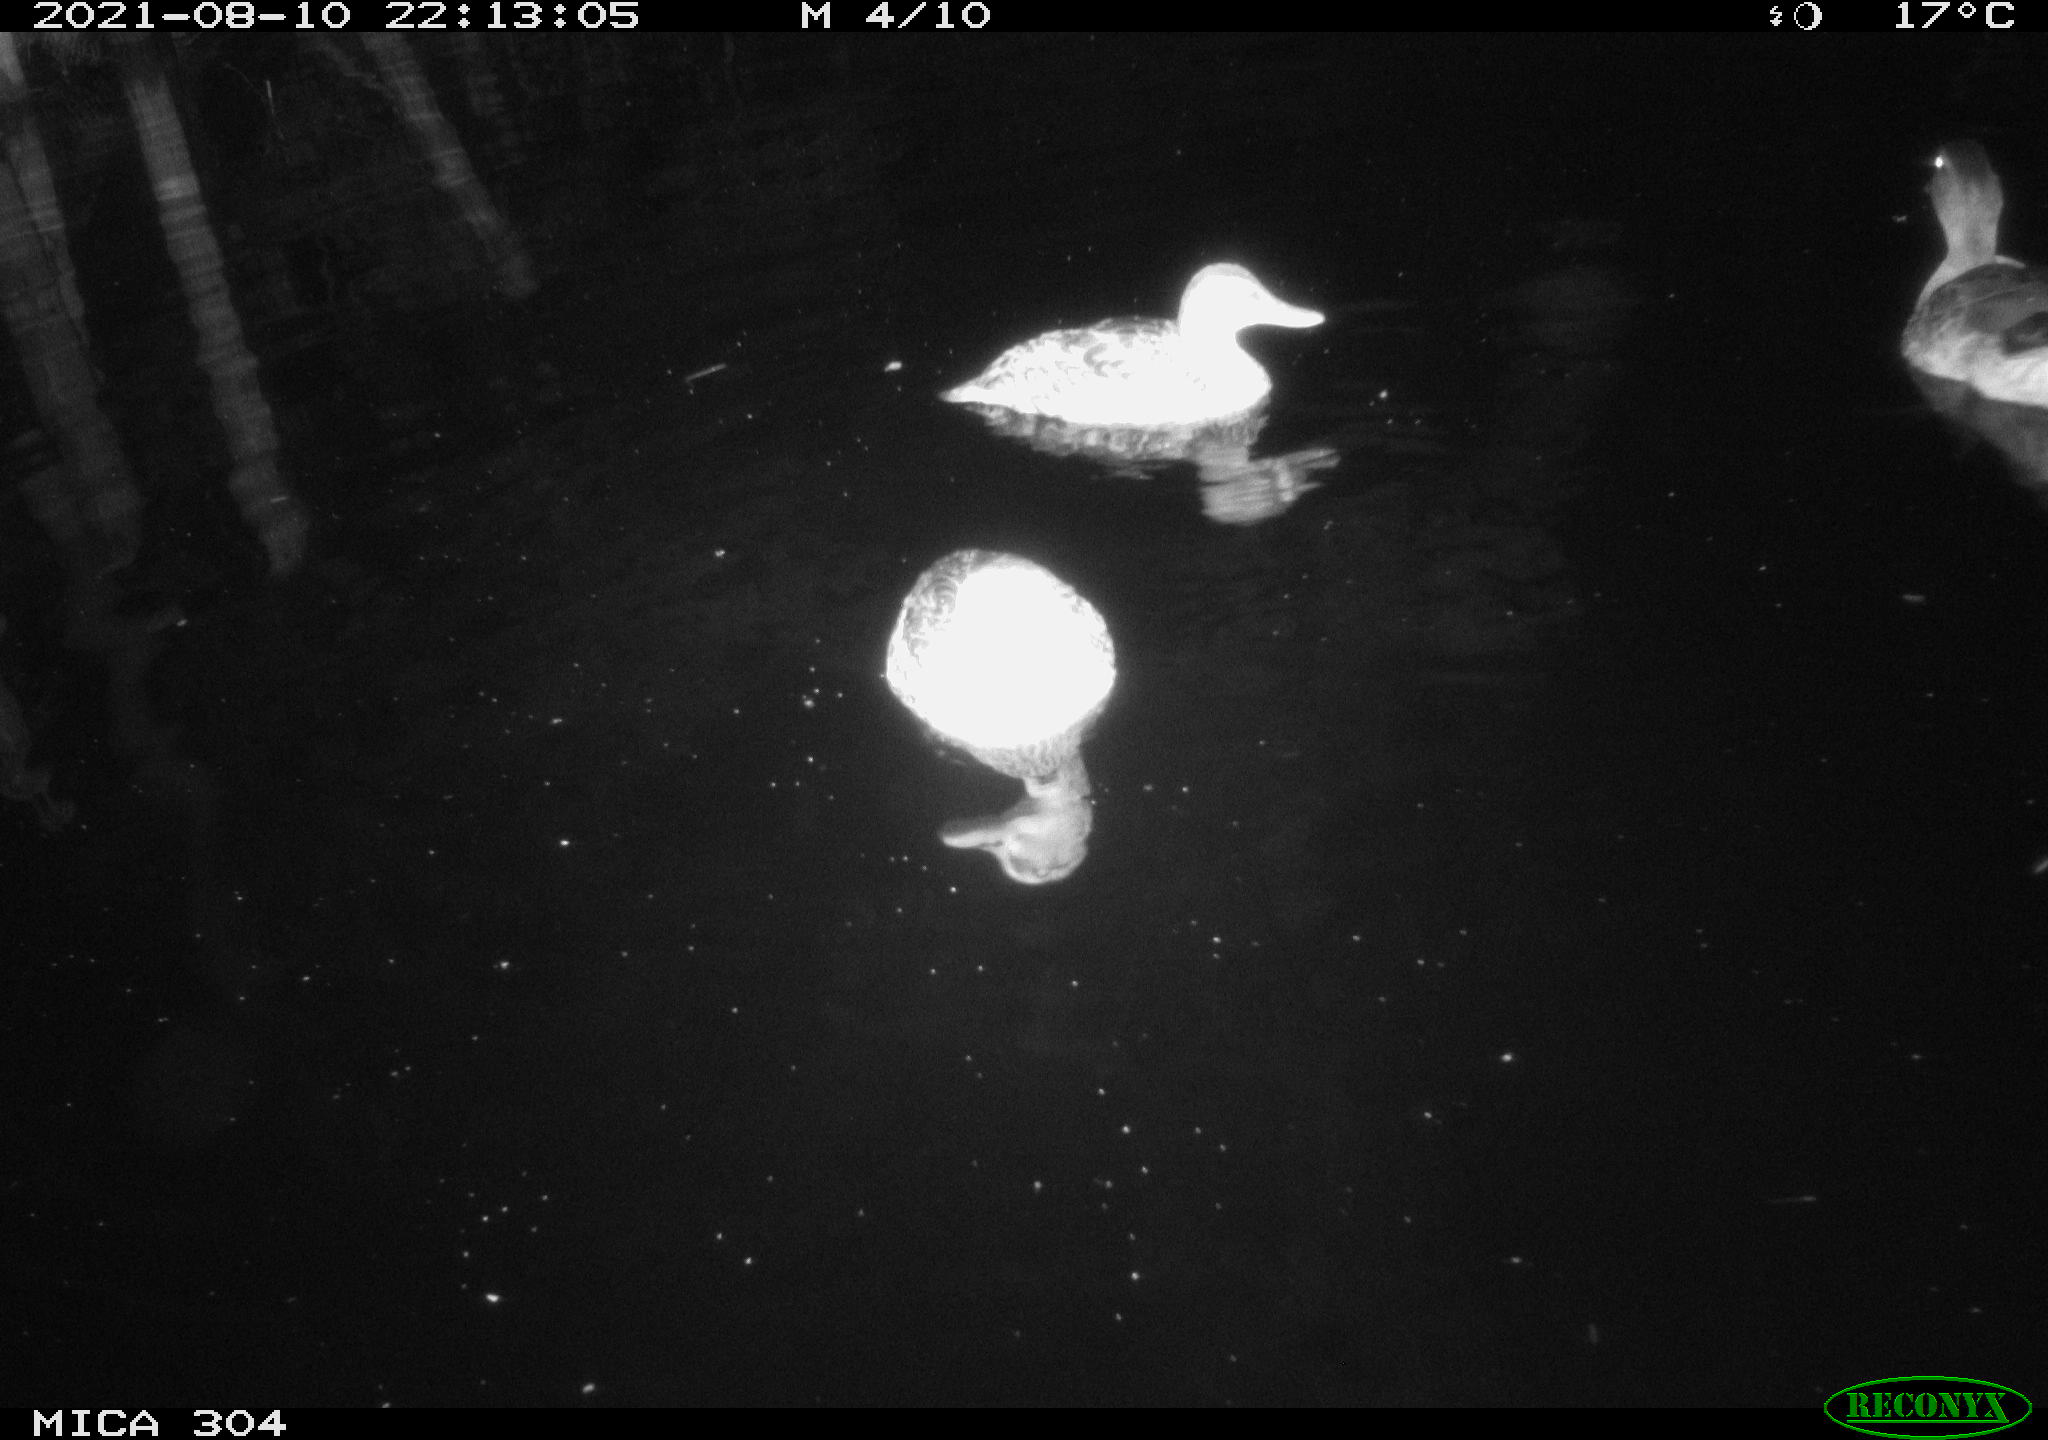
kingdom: Animalia
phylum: Chordata
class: Aves
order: Anseriformes
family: Anatidae
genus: Anas
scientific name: Anas platyrhynchos
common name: Mallard
